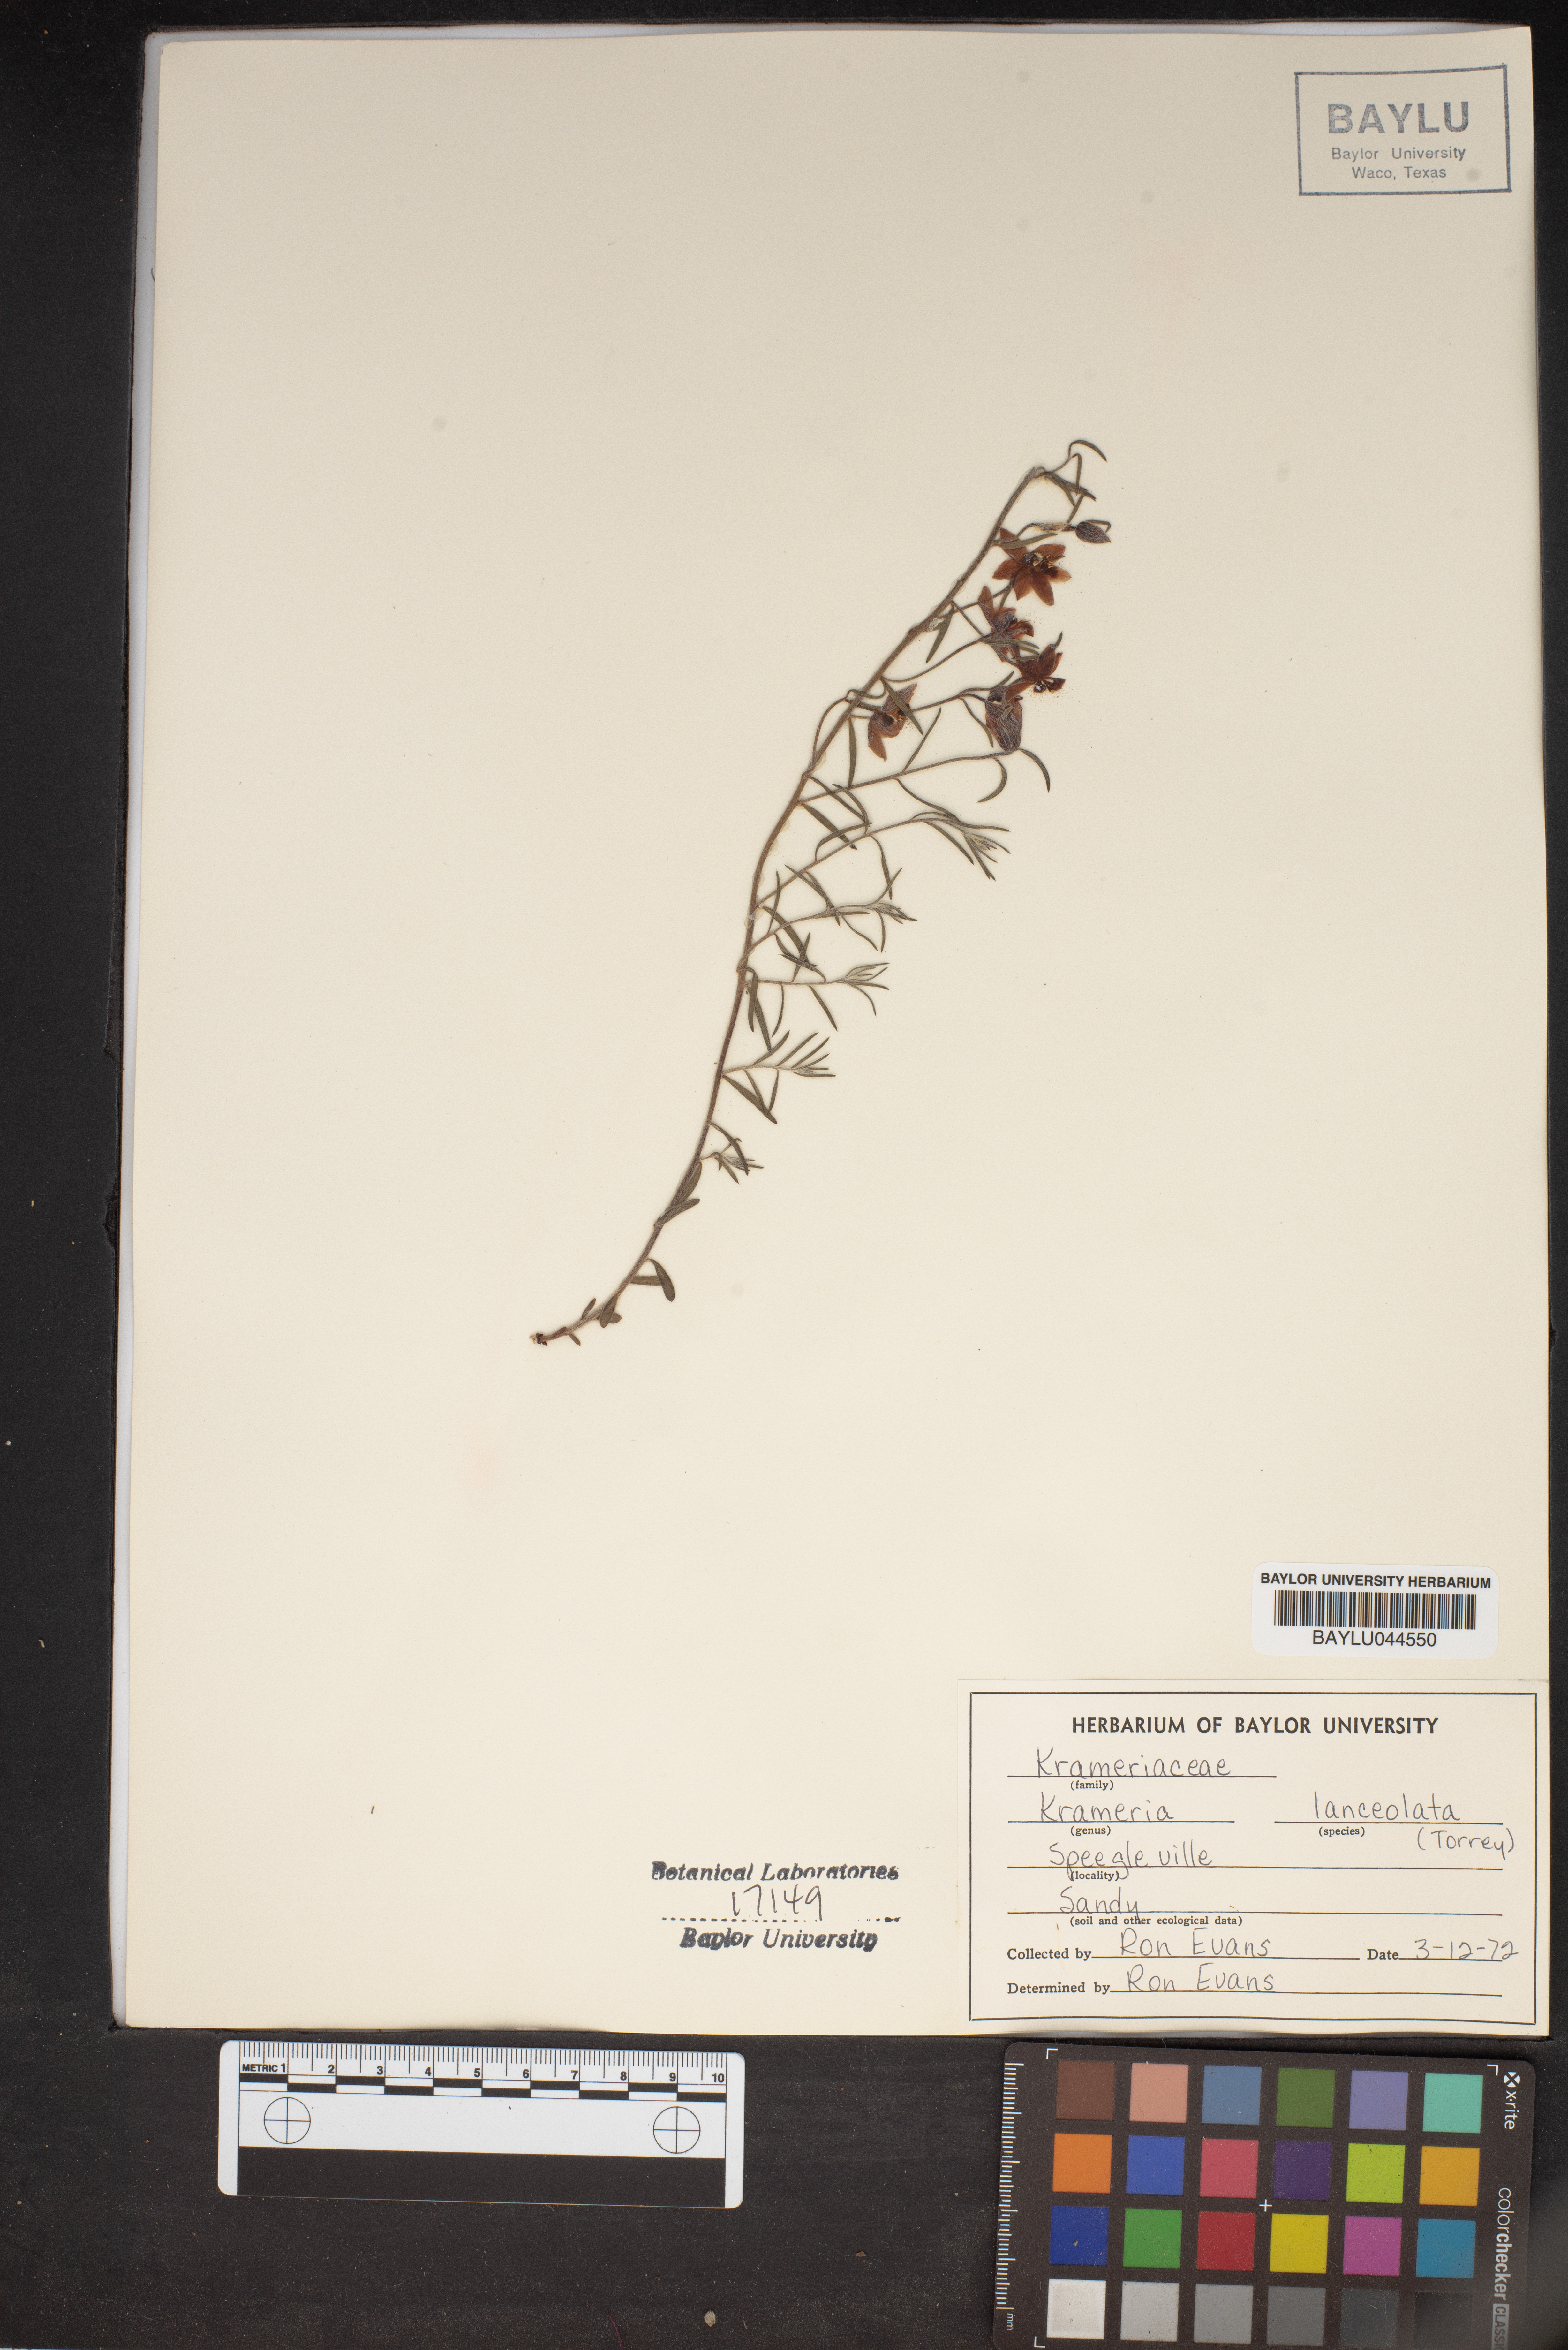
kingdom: Plantae
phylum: Tracheophyta
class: Magnoliopsida
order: Zygophyllales
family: Krameriaceae
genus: Krameria
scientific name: Krameria lanceolata
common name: Ratany
